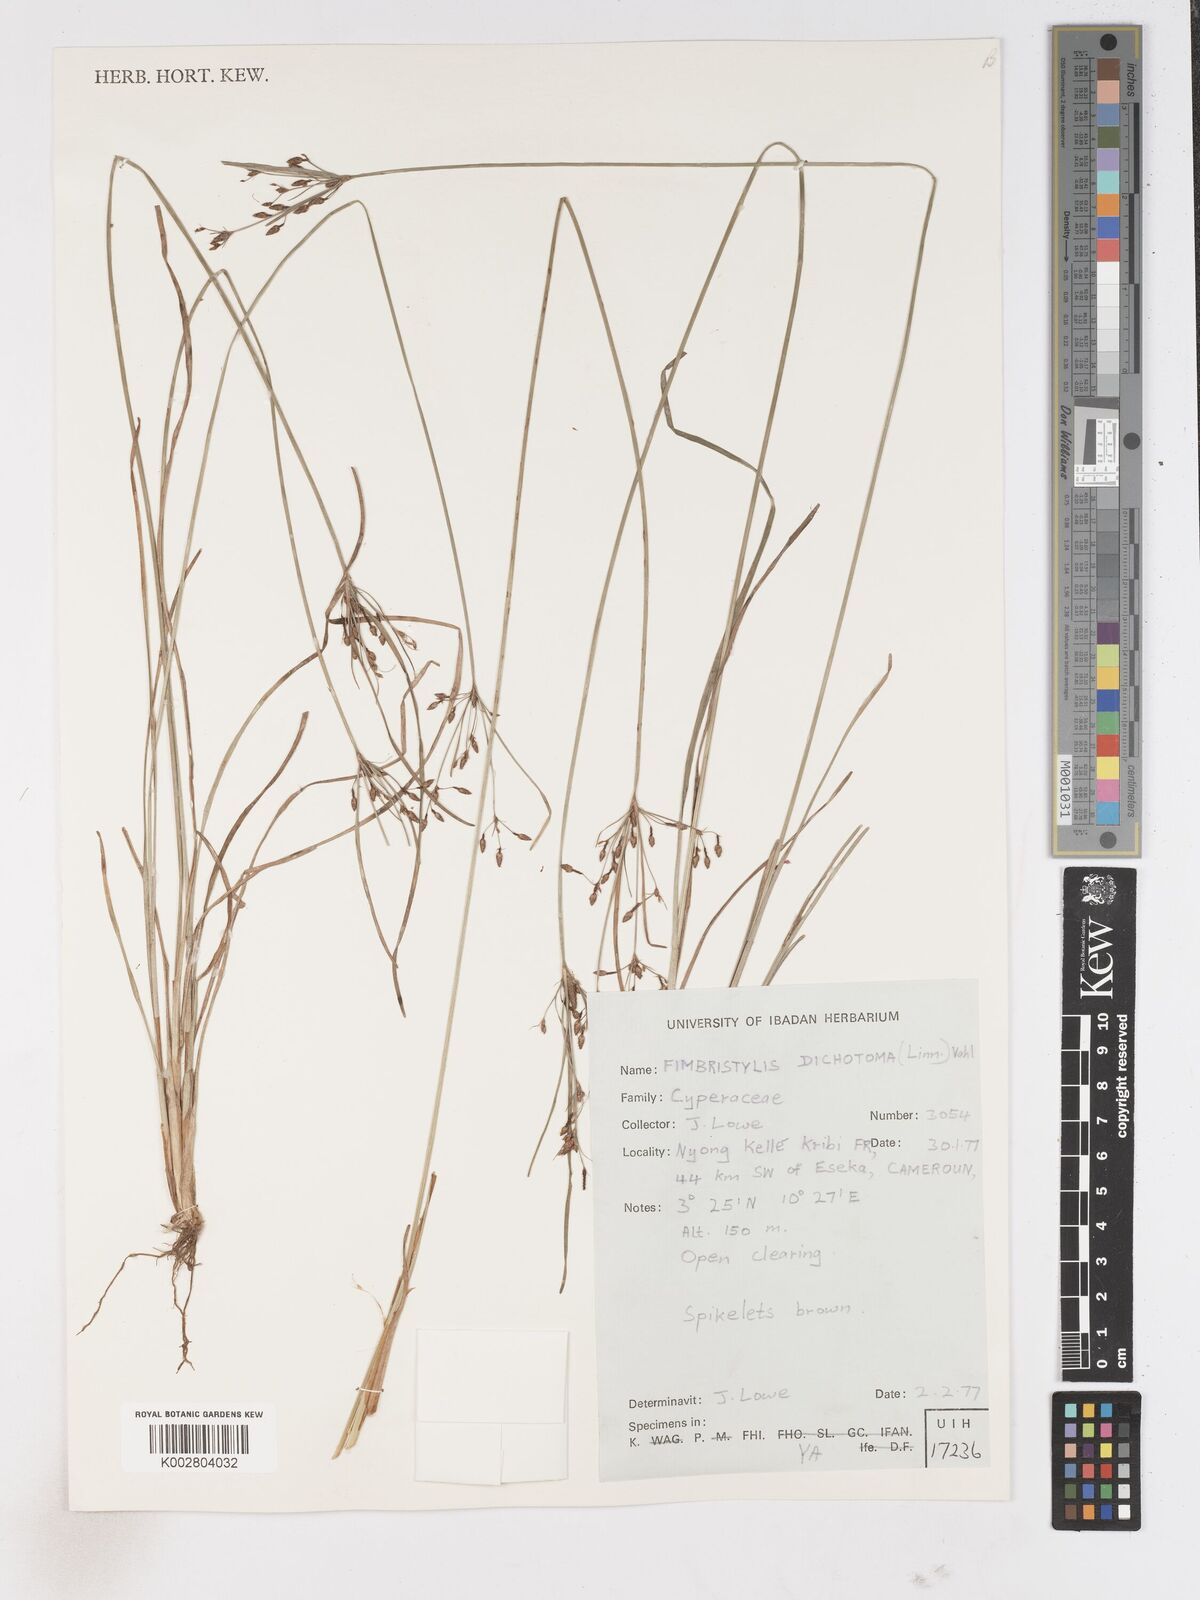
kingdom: Plantae
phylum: Tracheophyta
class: Liliopsida
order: Poales
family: Cyperaceae
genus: Fimbristylis
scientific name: Fimbristylis dichotoma
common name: Forked fimbry
